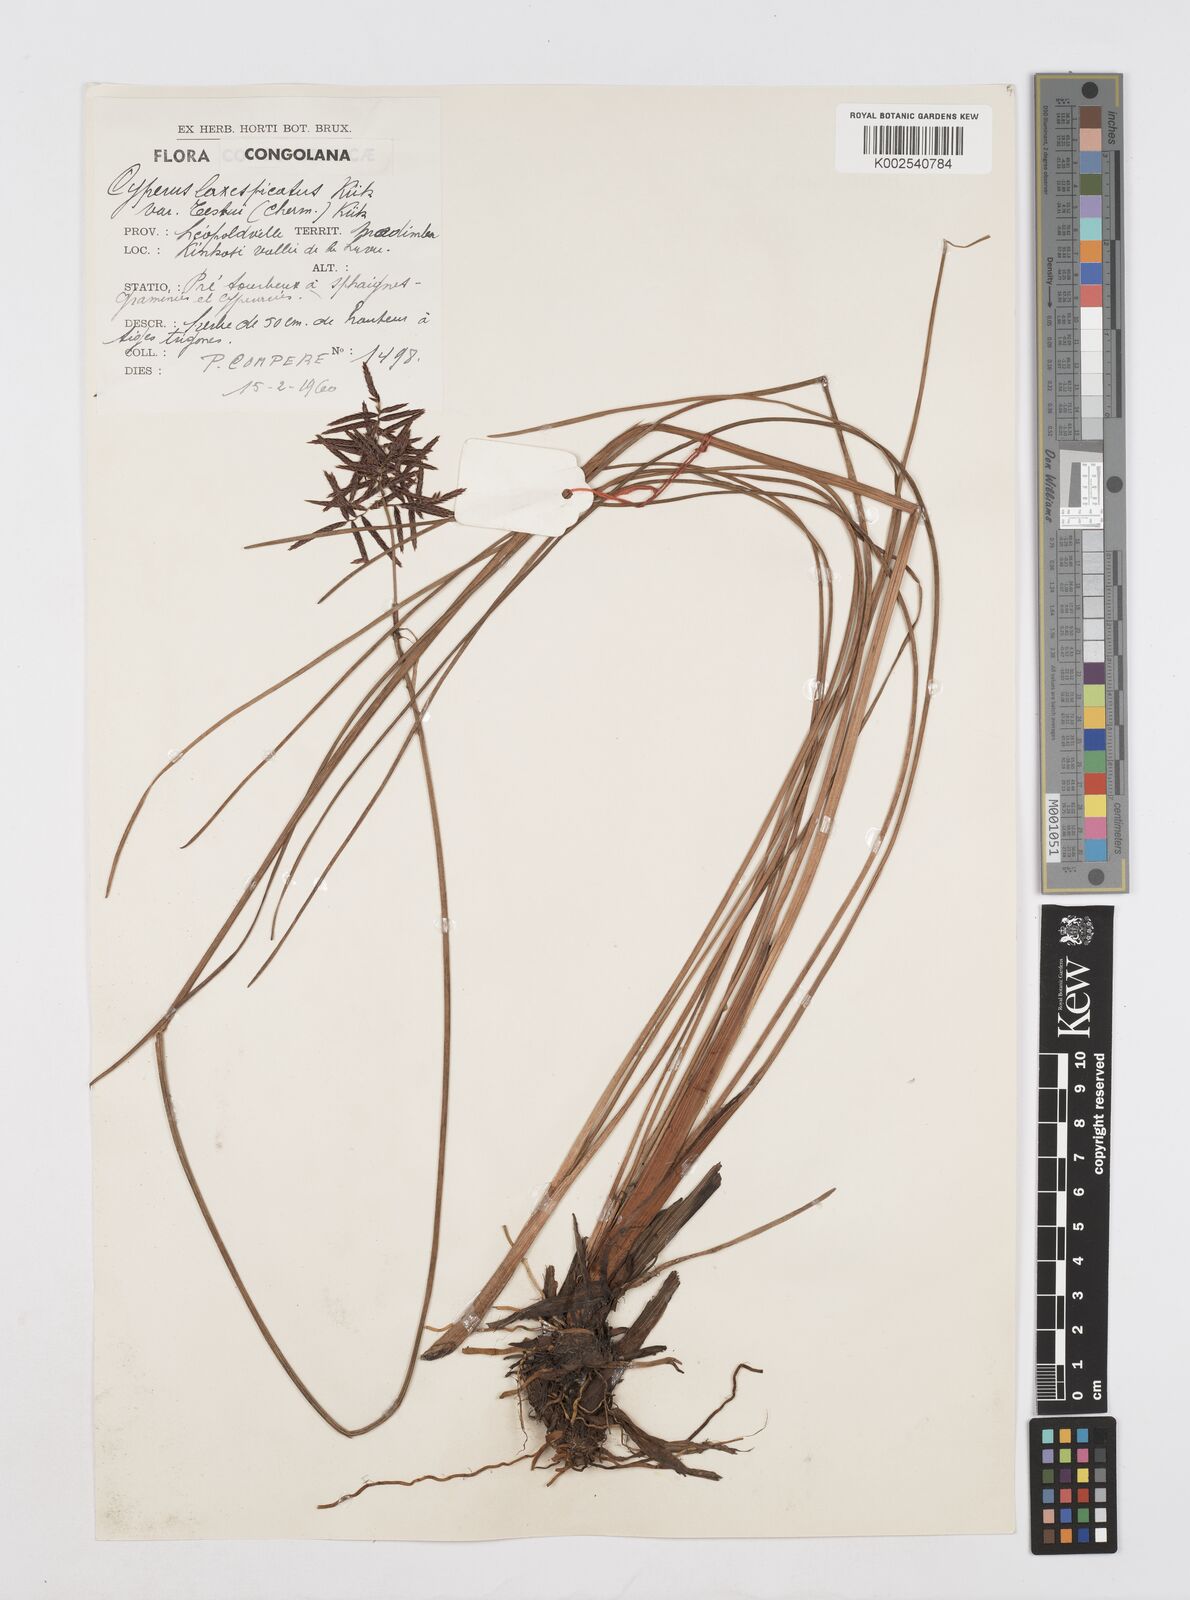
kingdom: Plantae
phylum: Tracheophyta
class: Liliopsida
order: Poales
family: Cyperaceae
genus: Cyperus
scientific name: Cyperus aethiops
